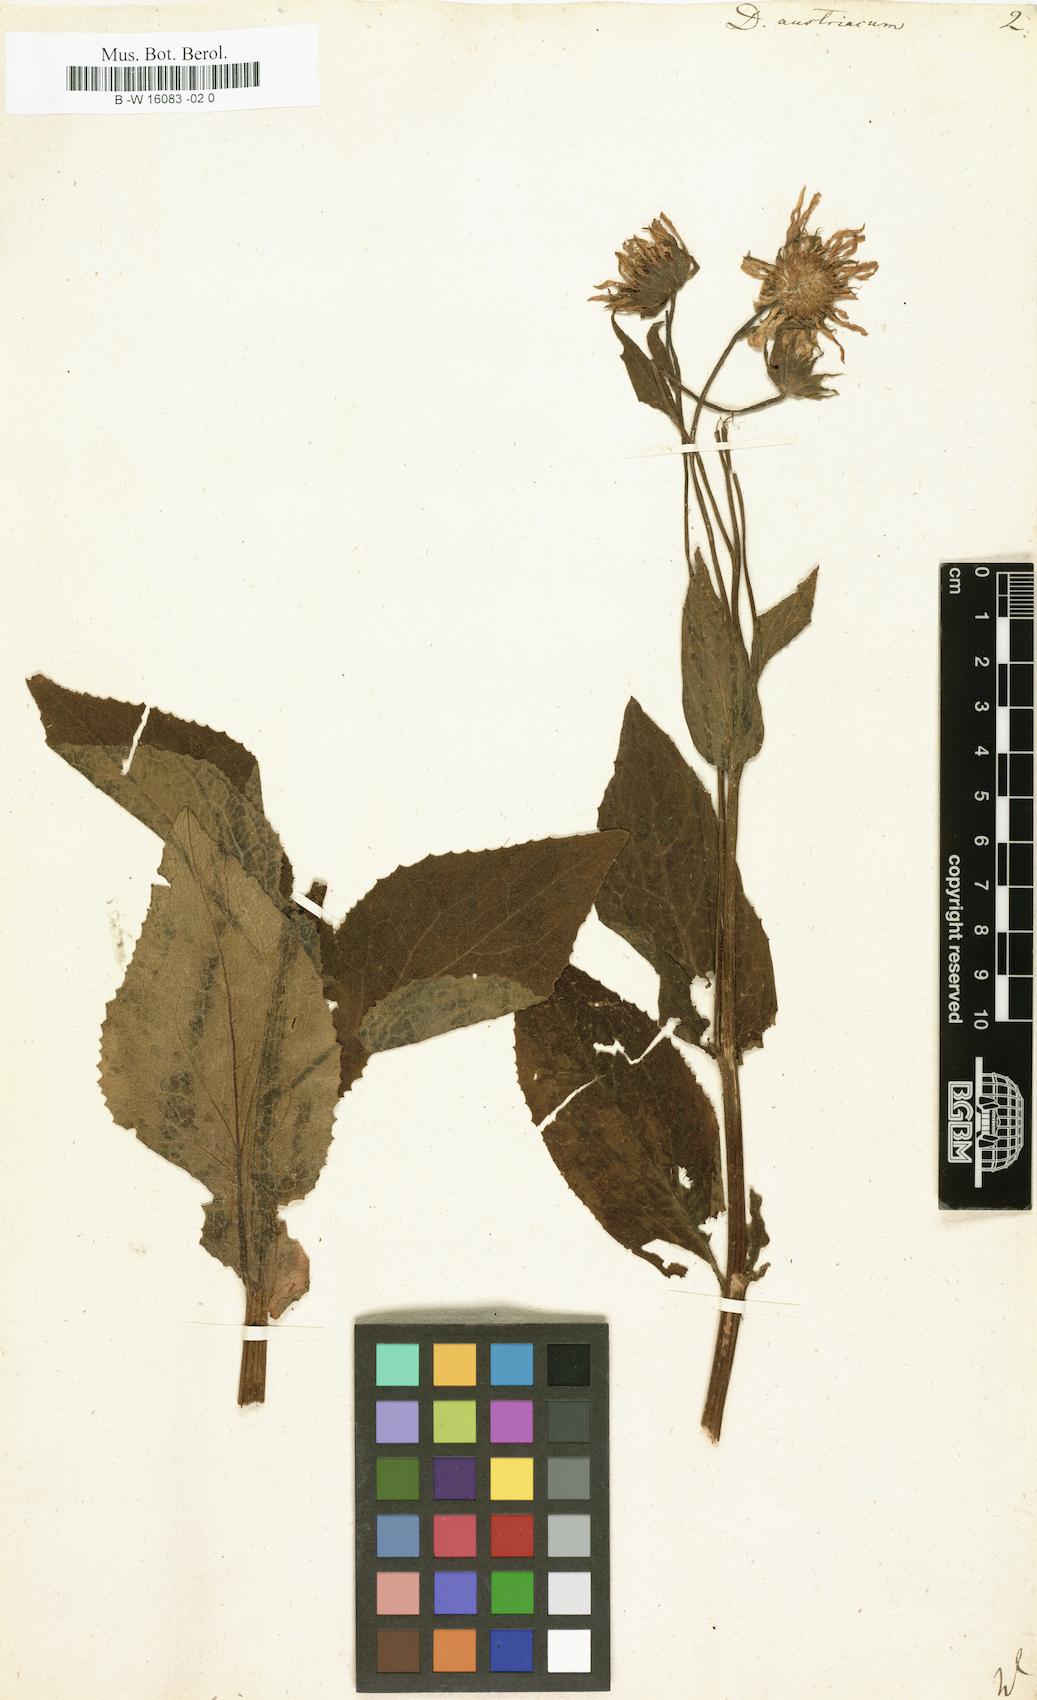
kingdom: Plantae
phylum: Tracheophyta
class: Magnoliopsida
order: Asterales
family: Asteraceae
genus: Doronicum
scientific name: Doronicum austriacum
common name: Austrian leopard's-bane
